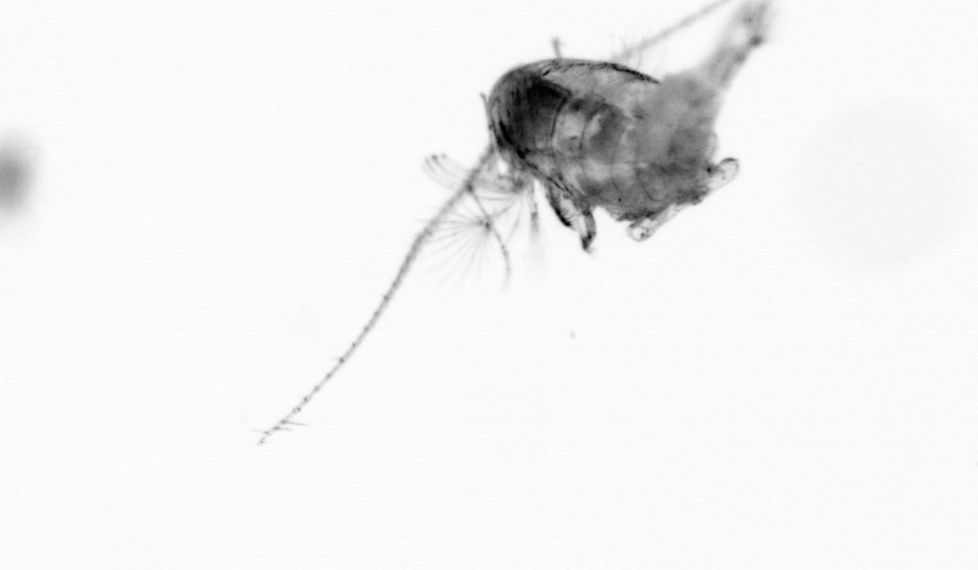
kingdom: Animalia
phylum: Arthropoda
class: Copepoda
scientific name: Copepoda
